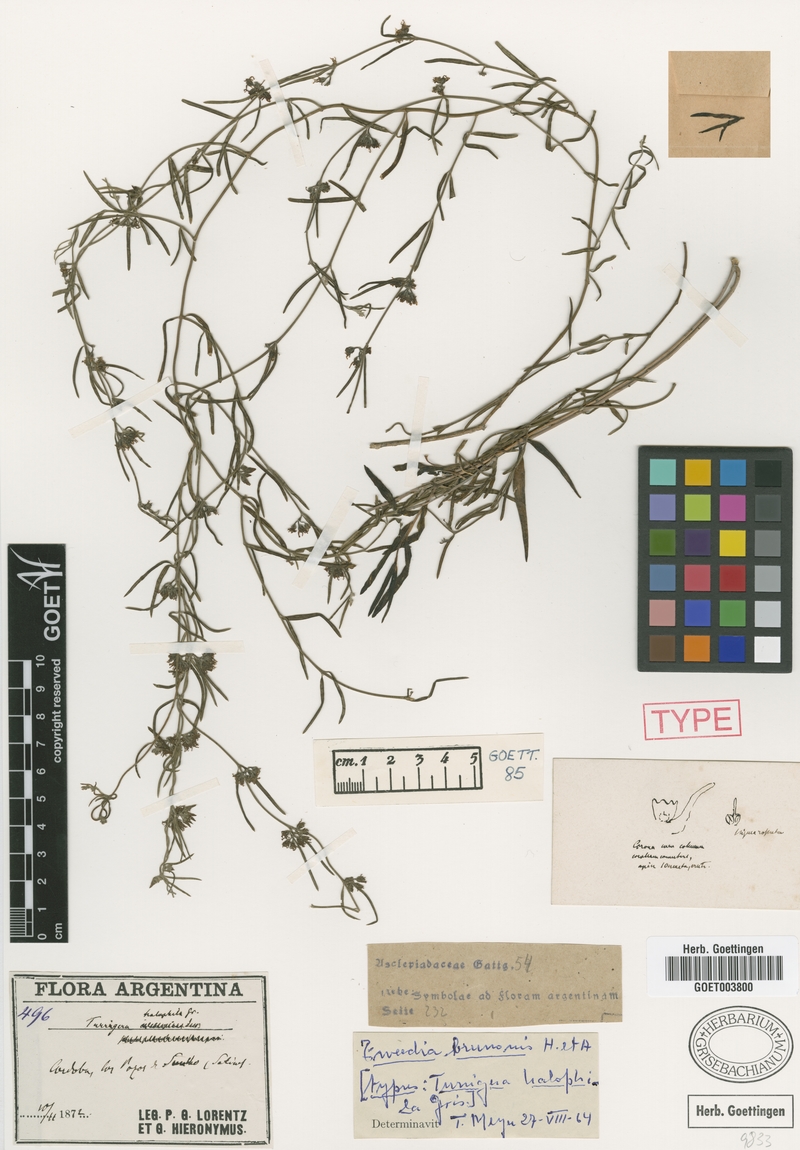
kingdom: Plantae
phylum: Tracheophyta
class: Magnoliopsida
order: Gentianales
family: Apocynaceae
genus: Tweedia
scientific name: Tweedia brunonis
